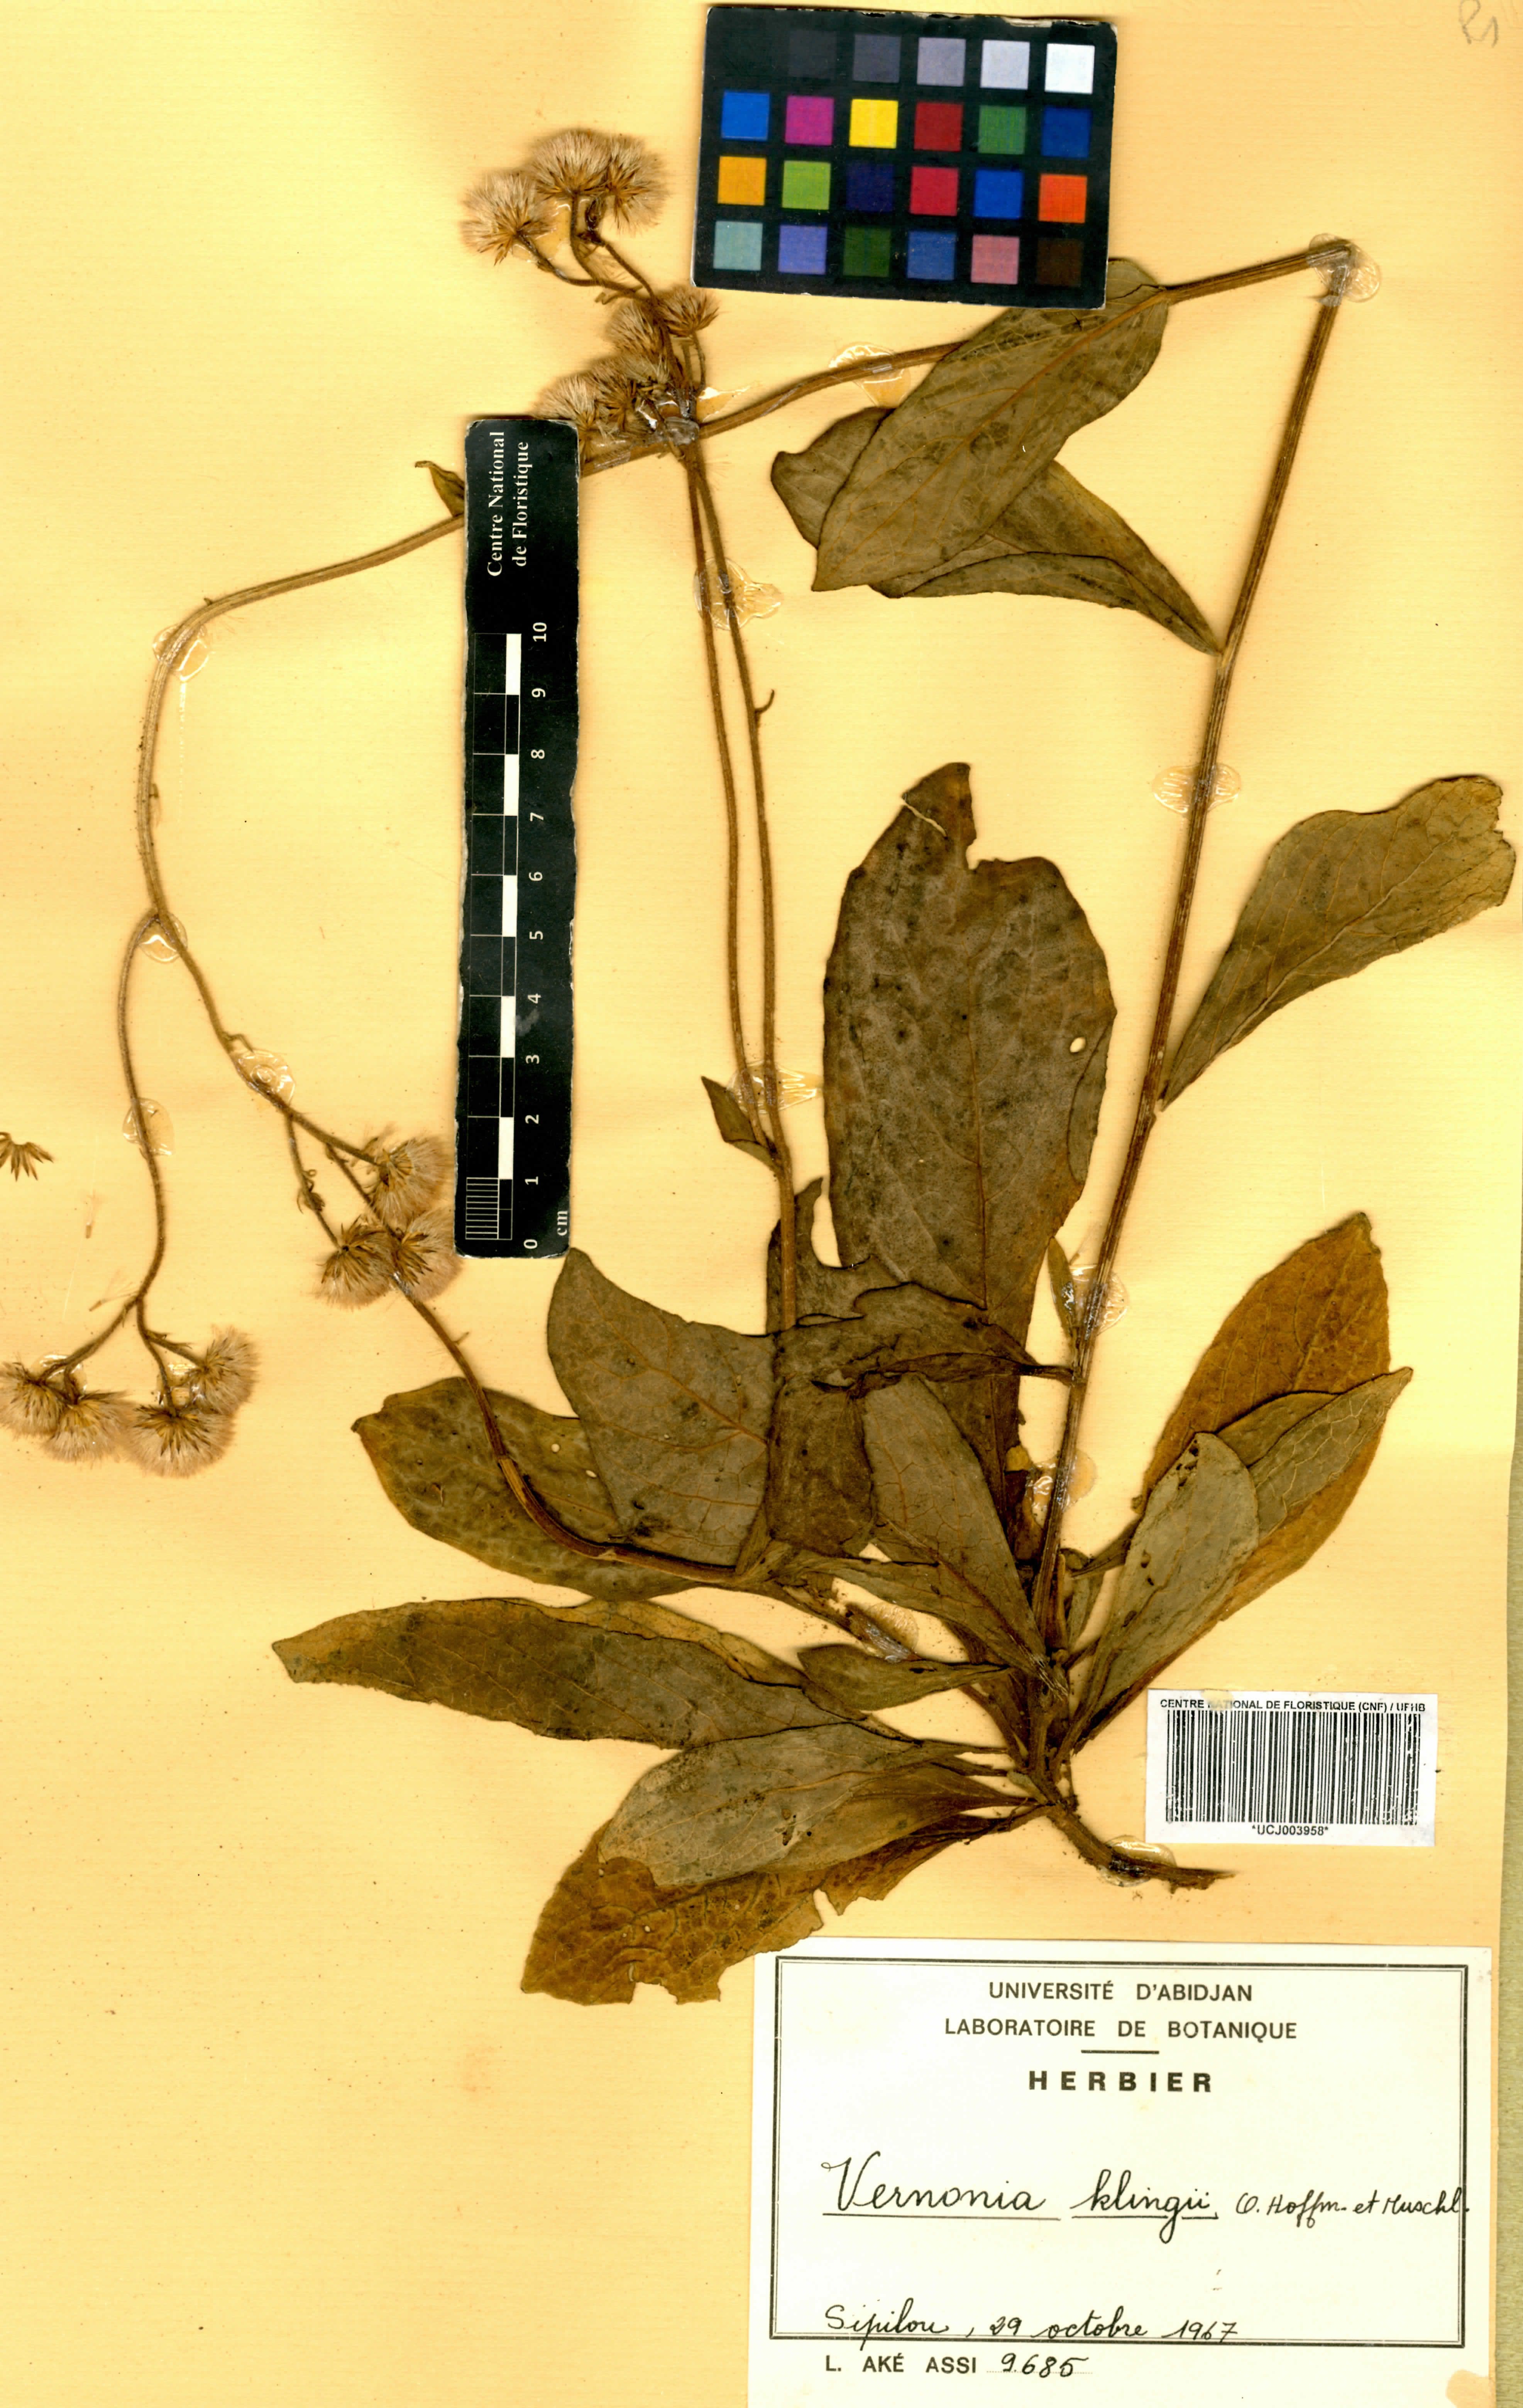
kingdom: Plantae
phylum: Tracheophyta
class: Magnoliopsida
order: Asterales
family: Asteraceae
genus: Vernoniastrum
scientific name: Vernoniastrum klingii
